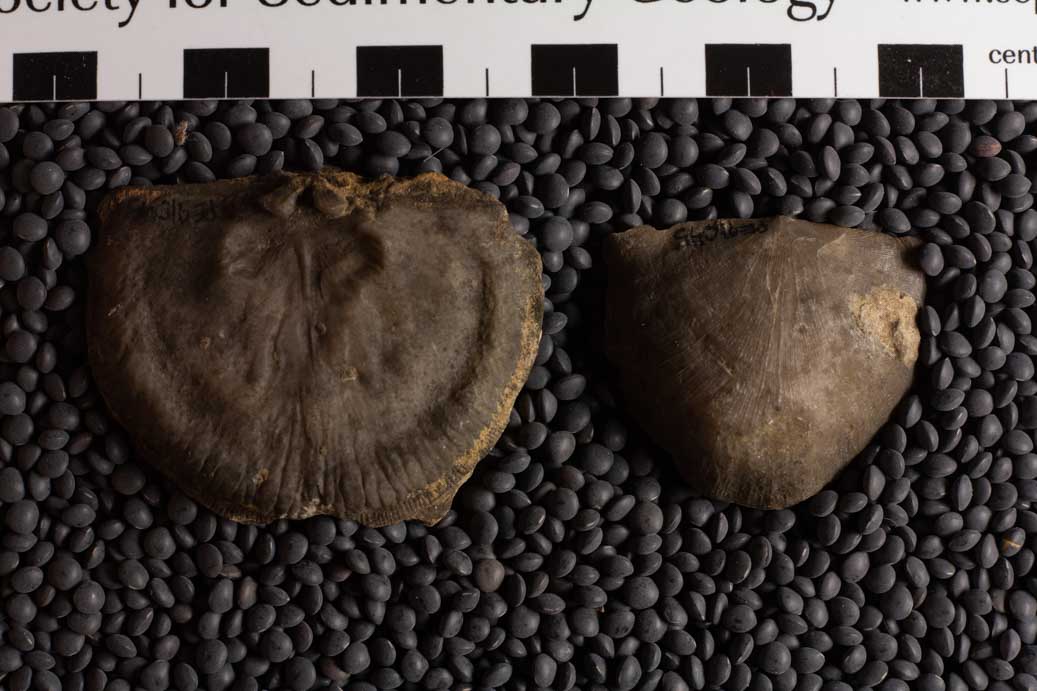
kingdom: Animalia
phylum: Brachiopoda
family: Strophomenidae
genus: Strophomena
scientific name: Strophomena
